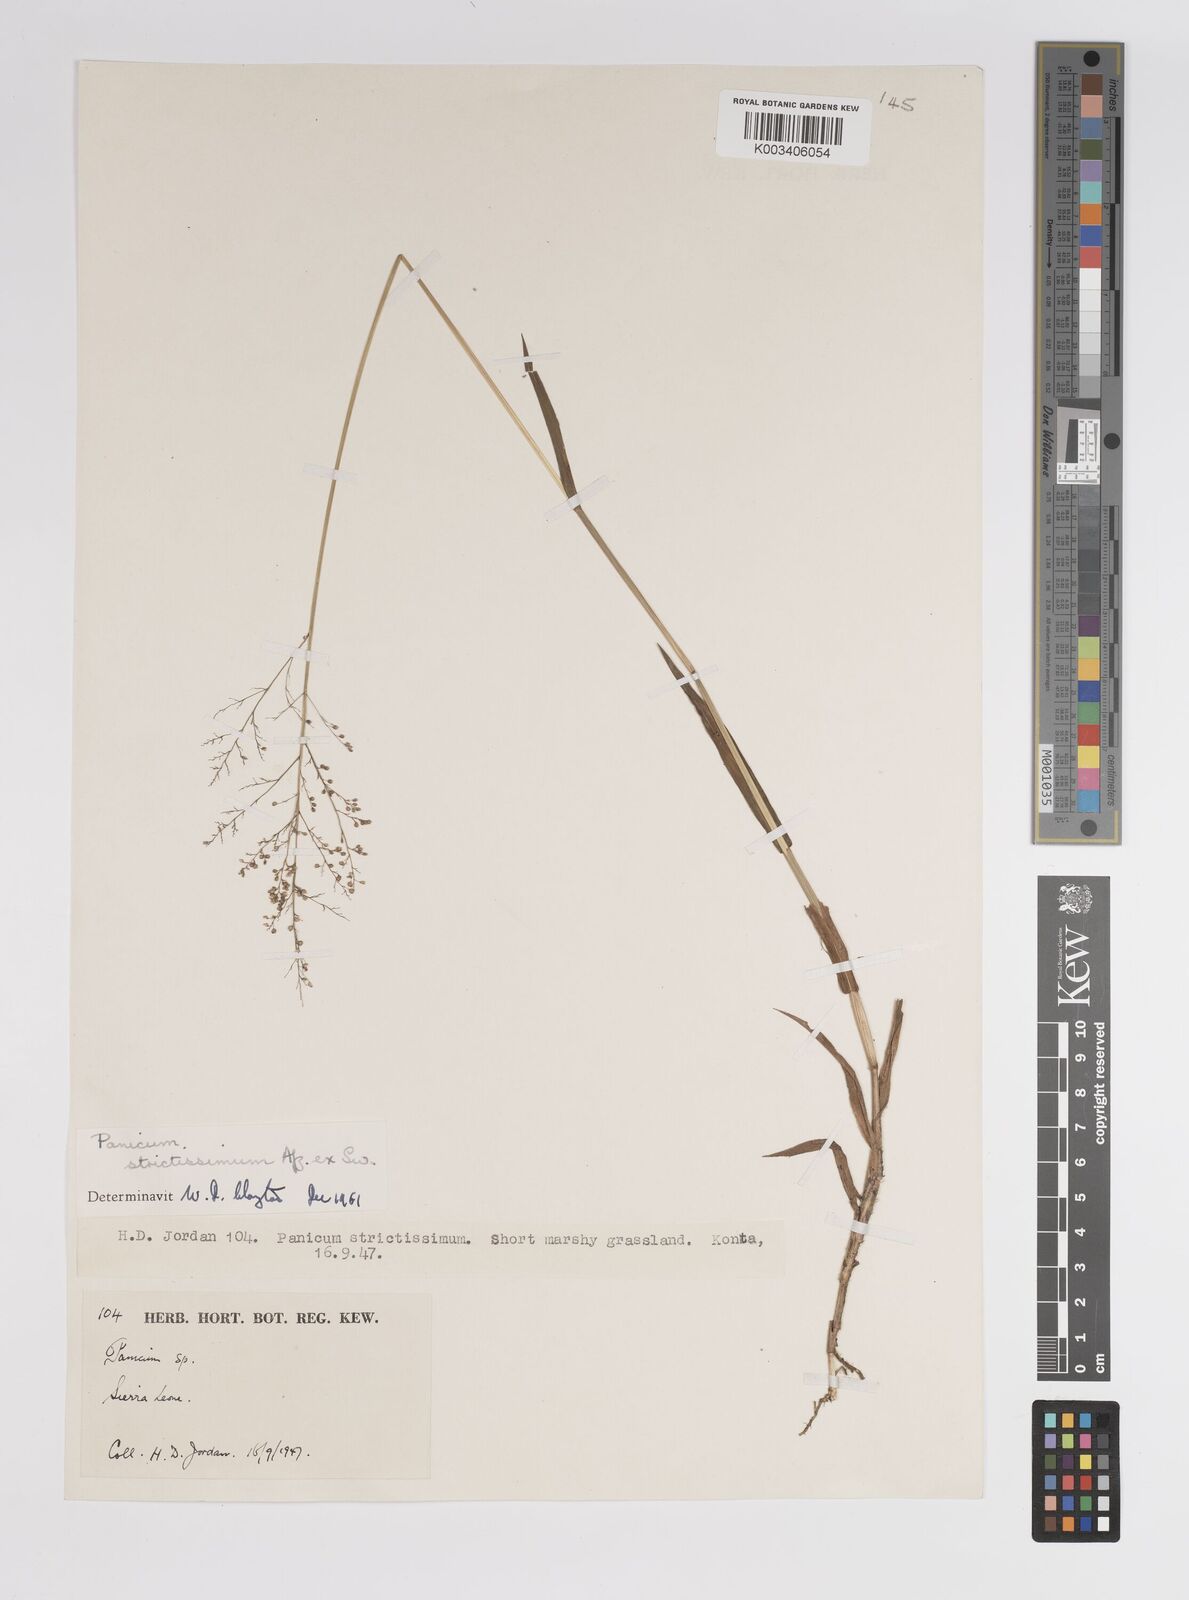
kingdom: Plantae
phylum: Tracheophyta
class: Liliopsida
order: Poales
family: Poaceae
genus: Trichanthecium
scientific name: Trichanthecium strictissimum
